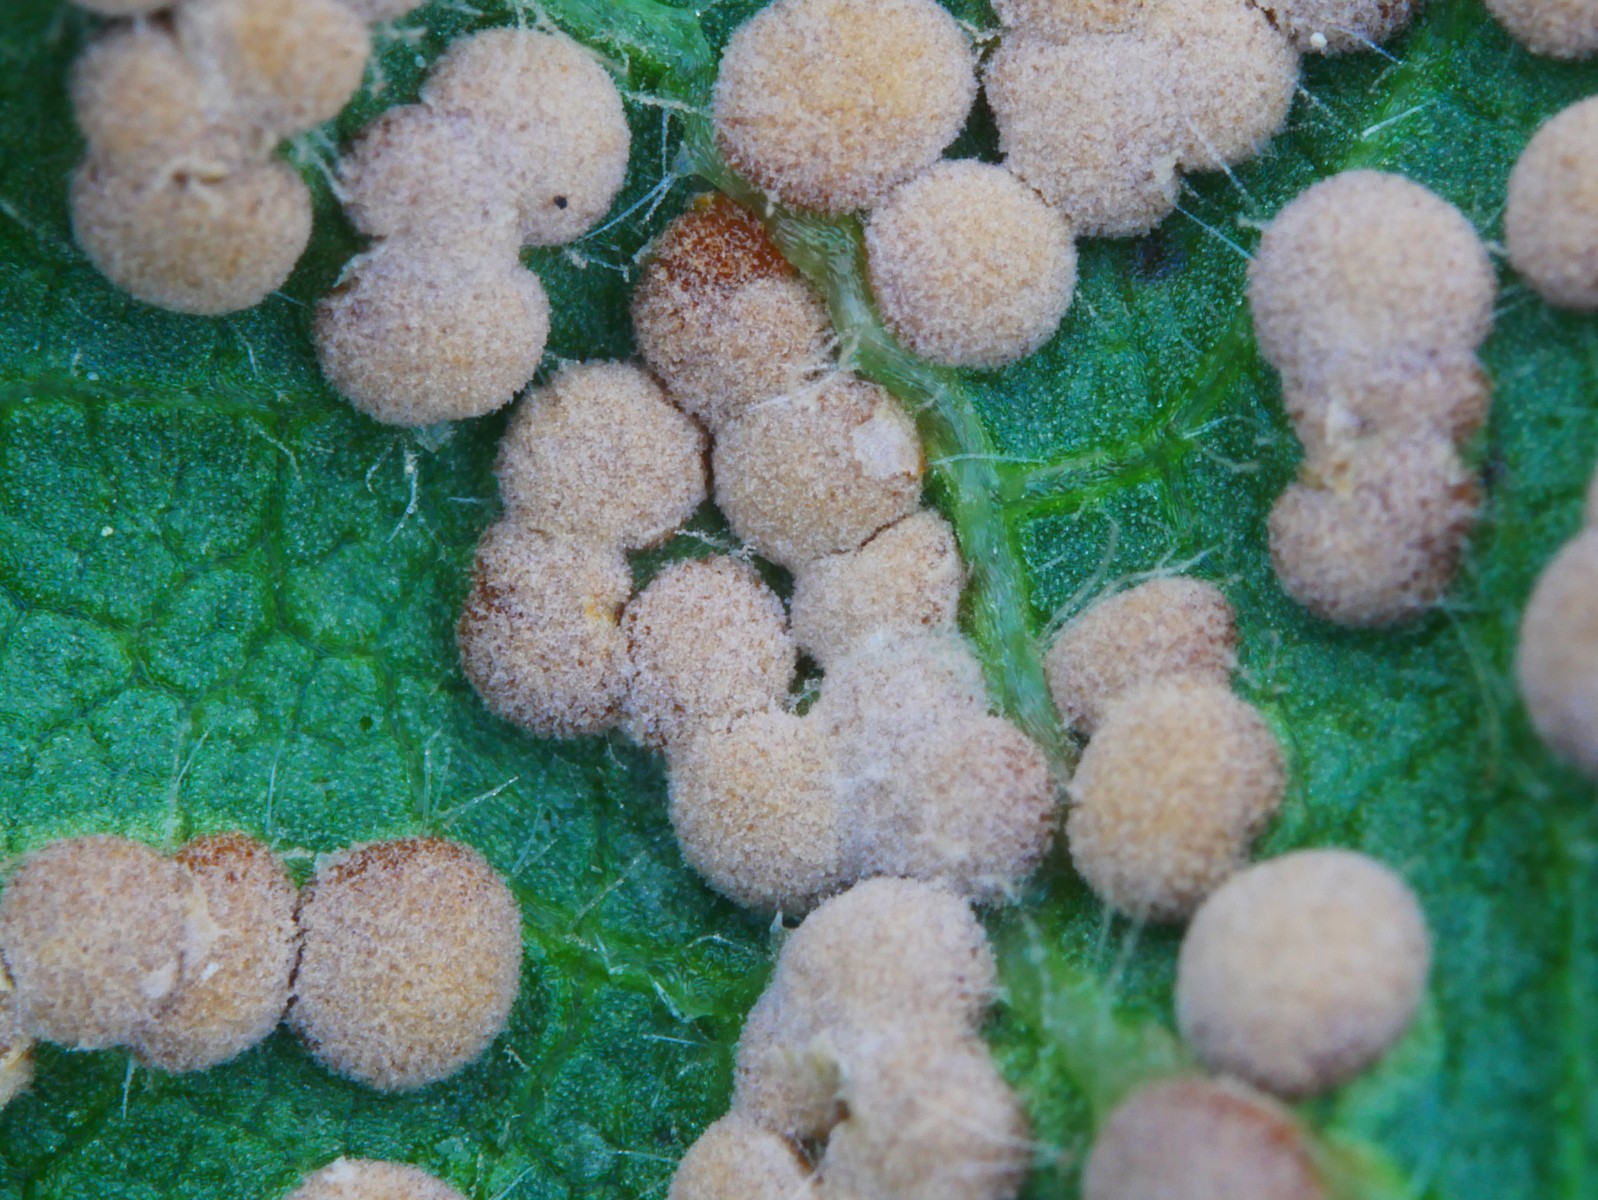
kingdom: Fungi
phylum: Basidiomycota
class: Pucciniomycetes
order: Pucciniales
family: Pucciniaceae
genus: Puccinia
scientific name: Puccinia malvacearum
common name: stokrose-tvecellerust
